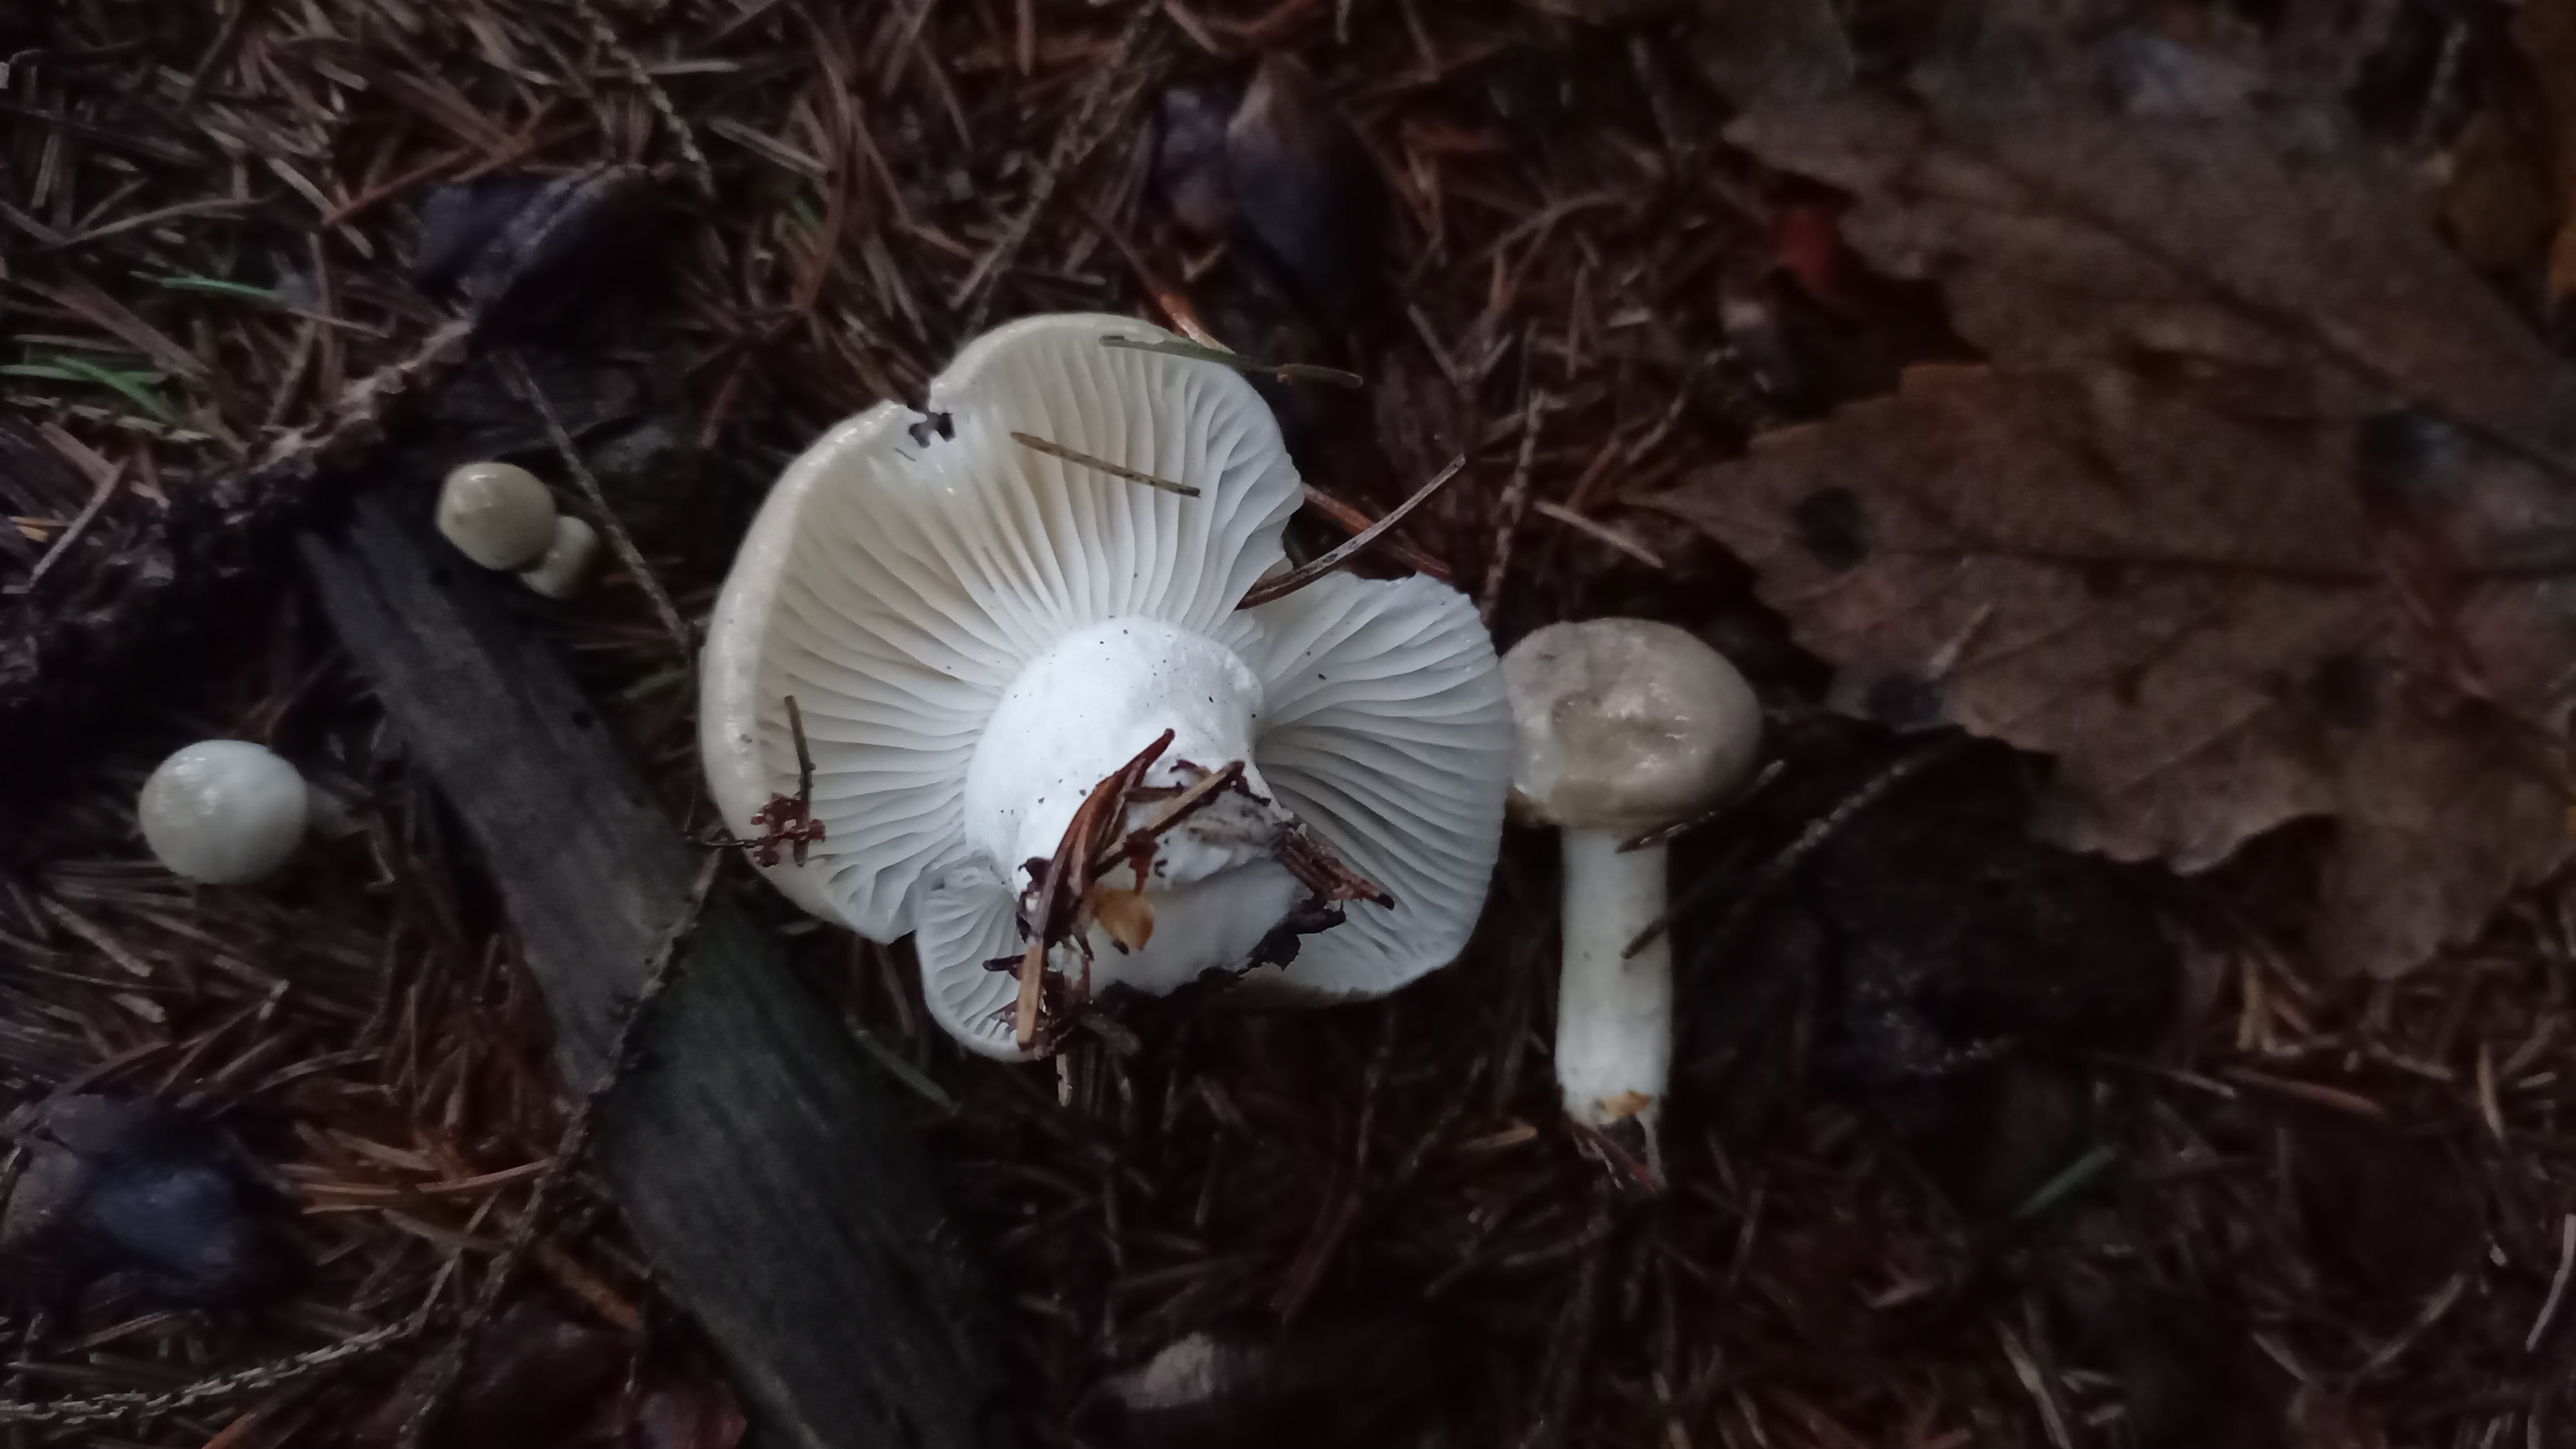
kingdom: Fungi
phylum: Basidiomycota
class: Agaricomycetes
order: Agaricales
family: Hygrophoraceae
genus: Hygrophorus
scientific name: Hygrophorus agathosmus
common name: vellugtende sneglehat
